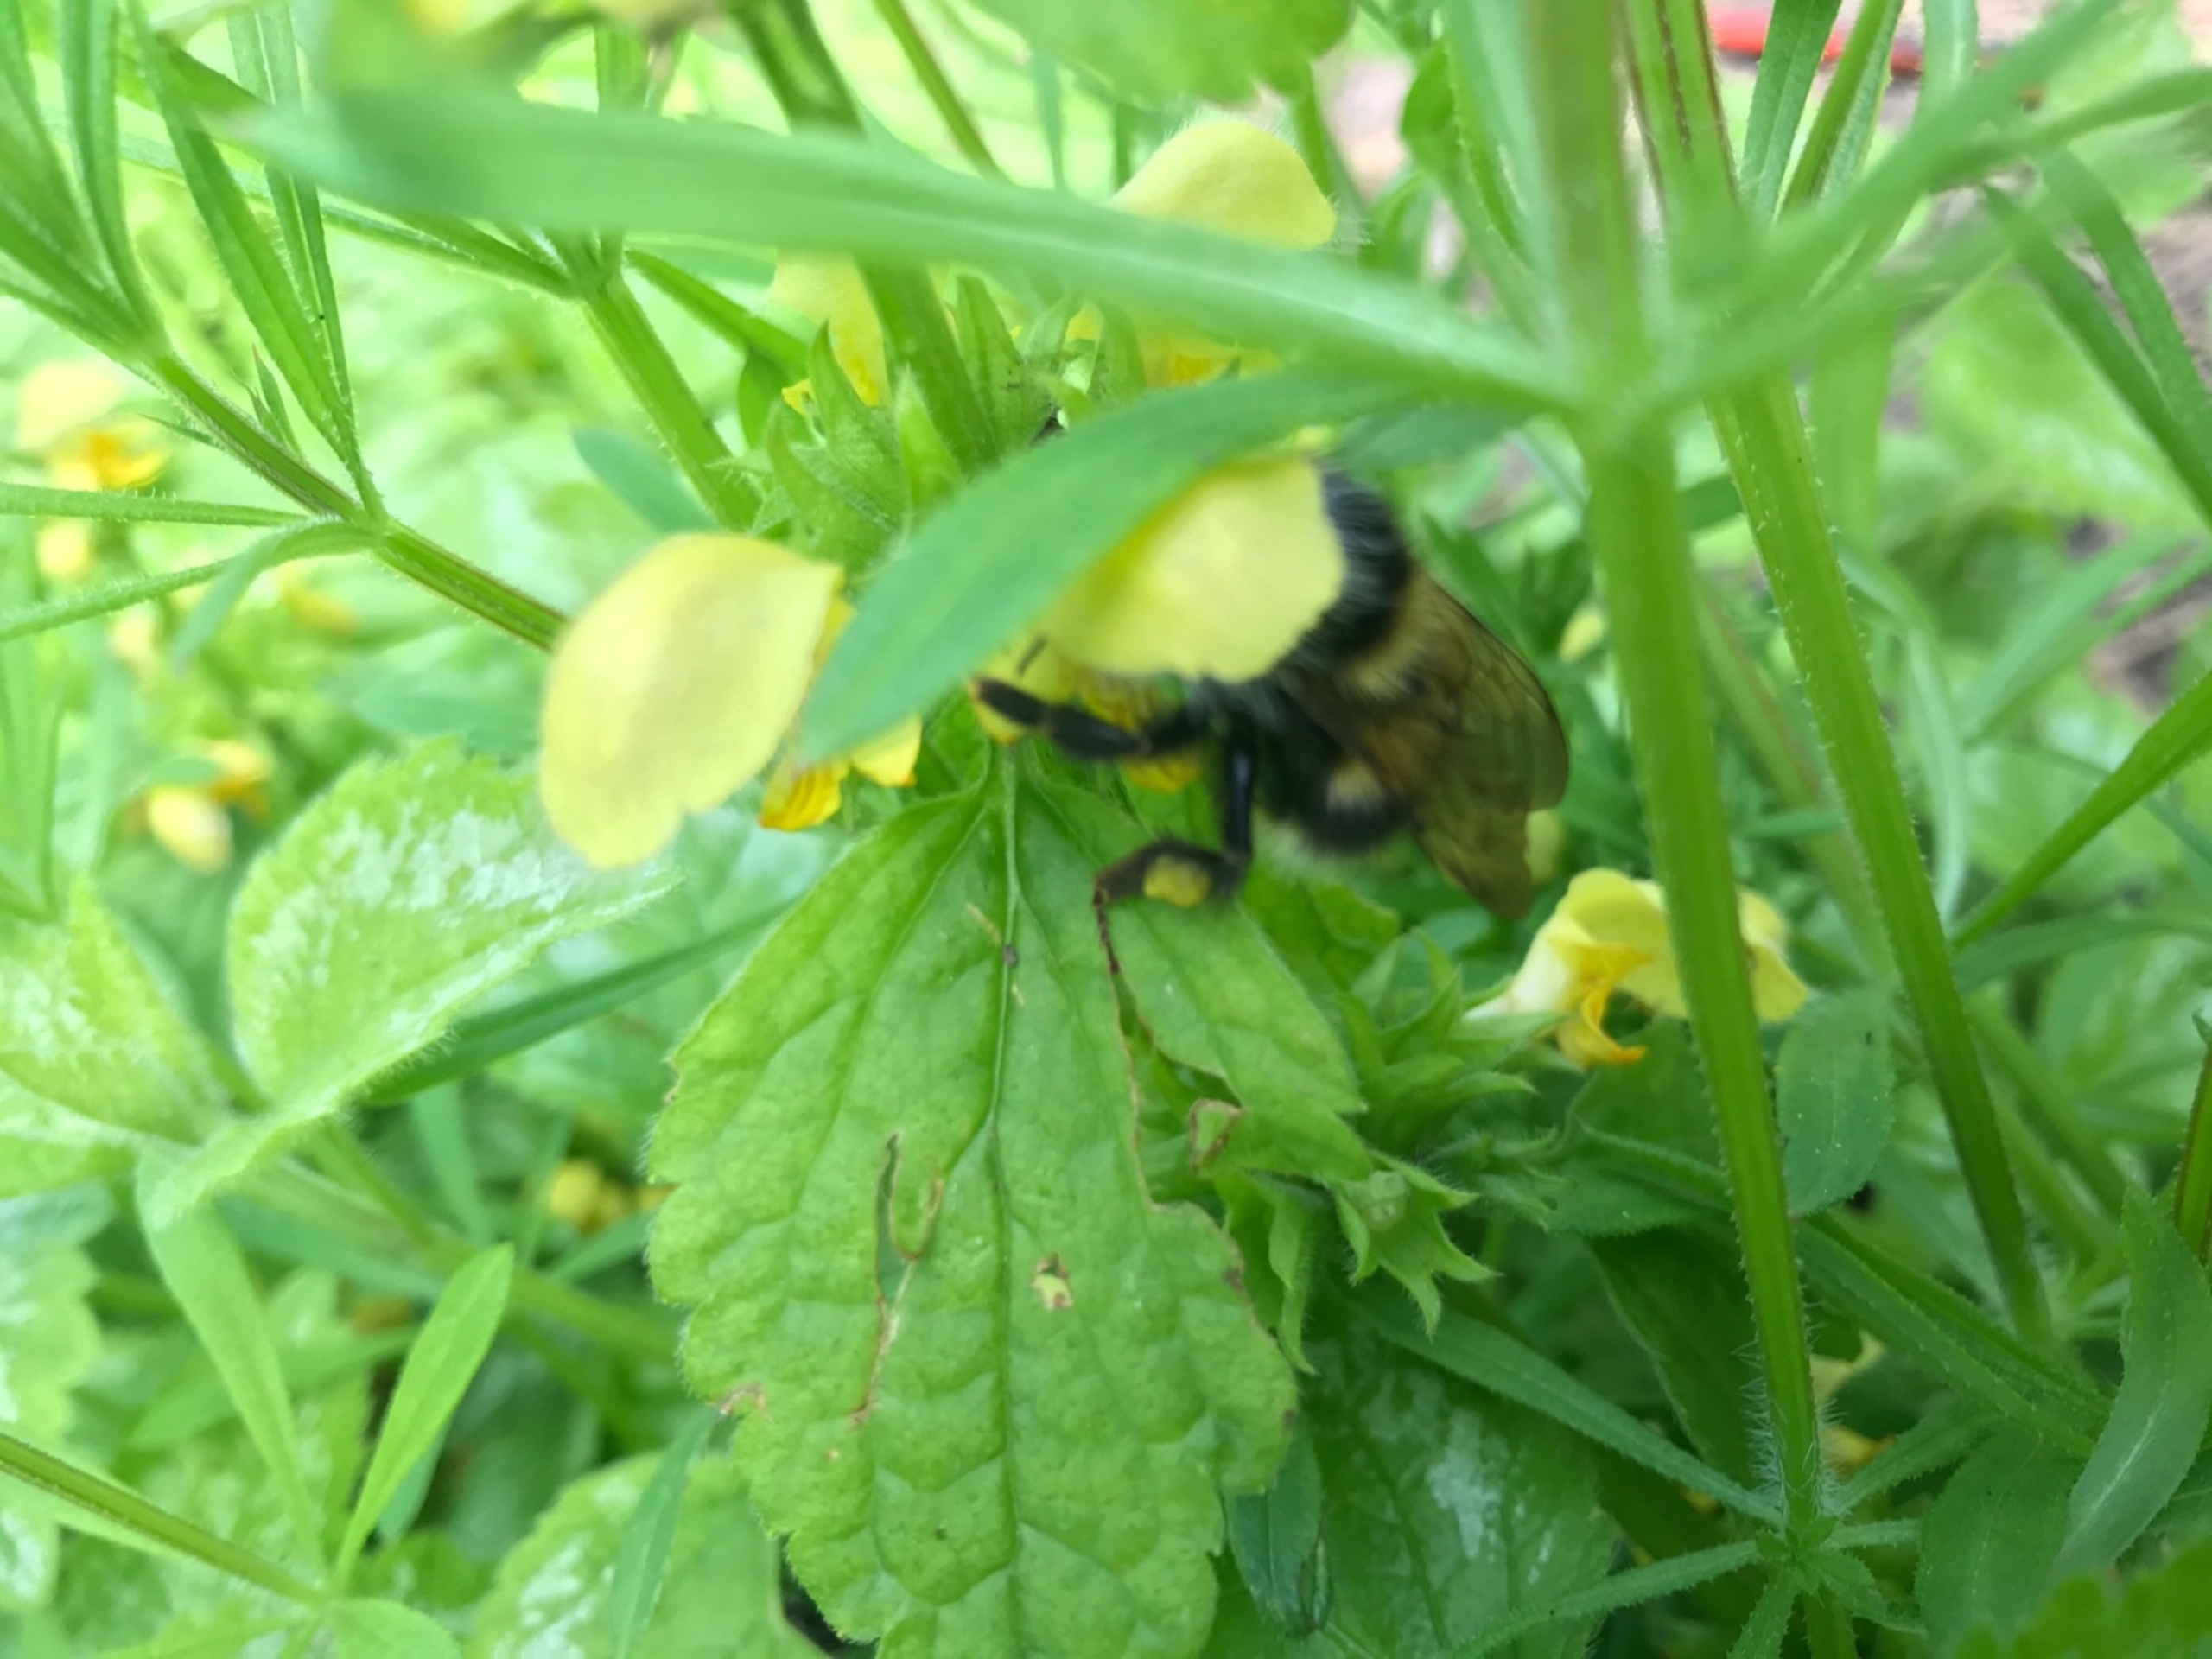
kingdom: Animalia
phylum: Arthropoda
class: Insecta
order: Hymenoptera
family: Apidae
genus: Bombus
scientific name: Bombus
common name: Humlebier
